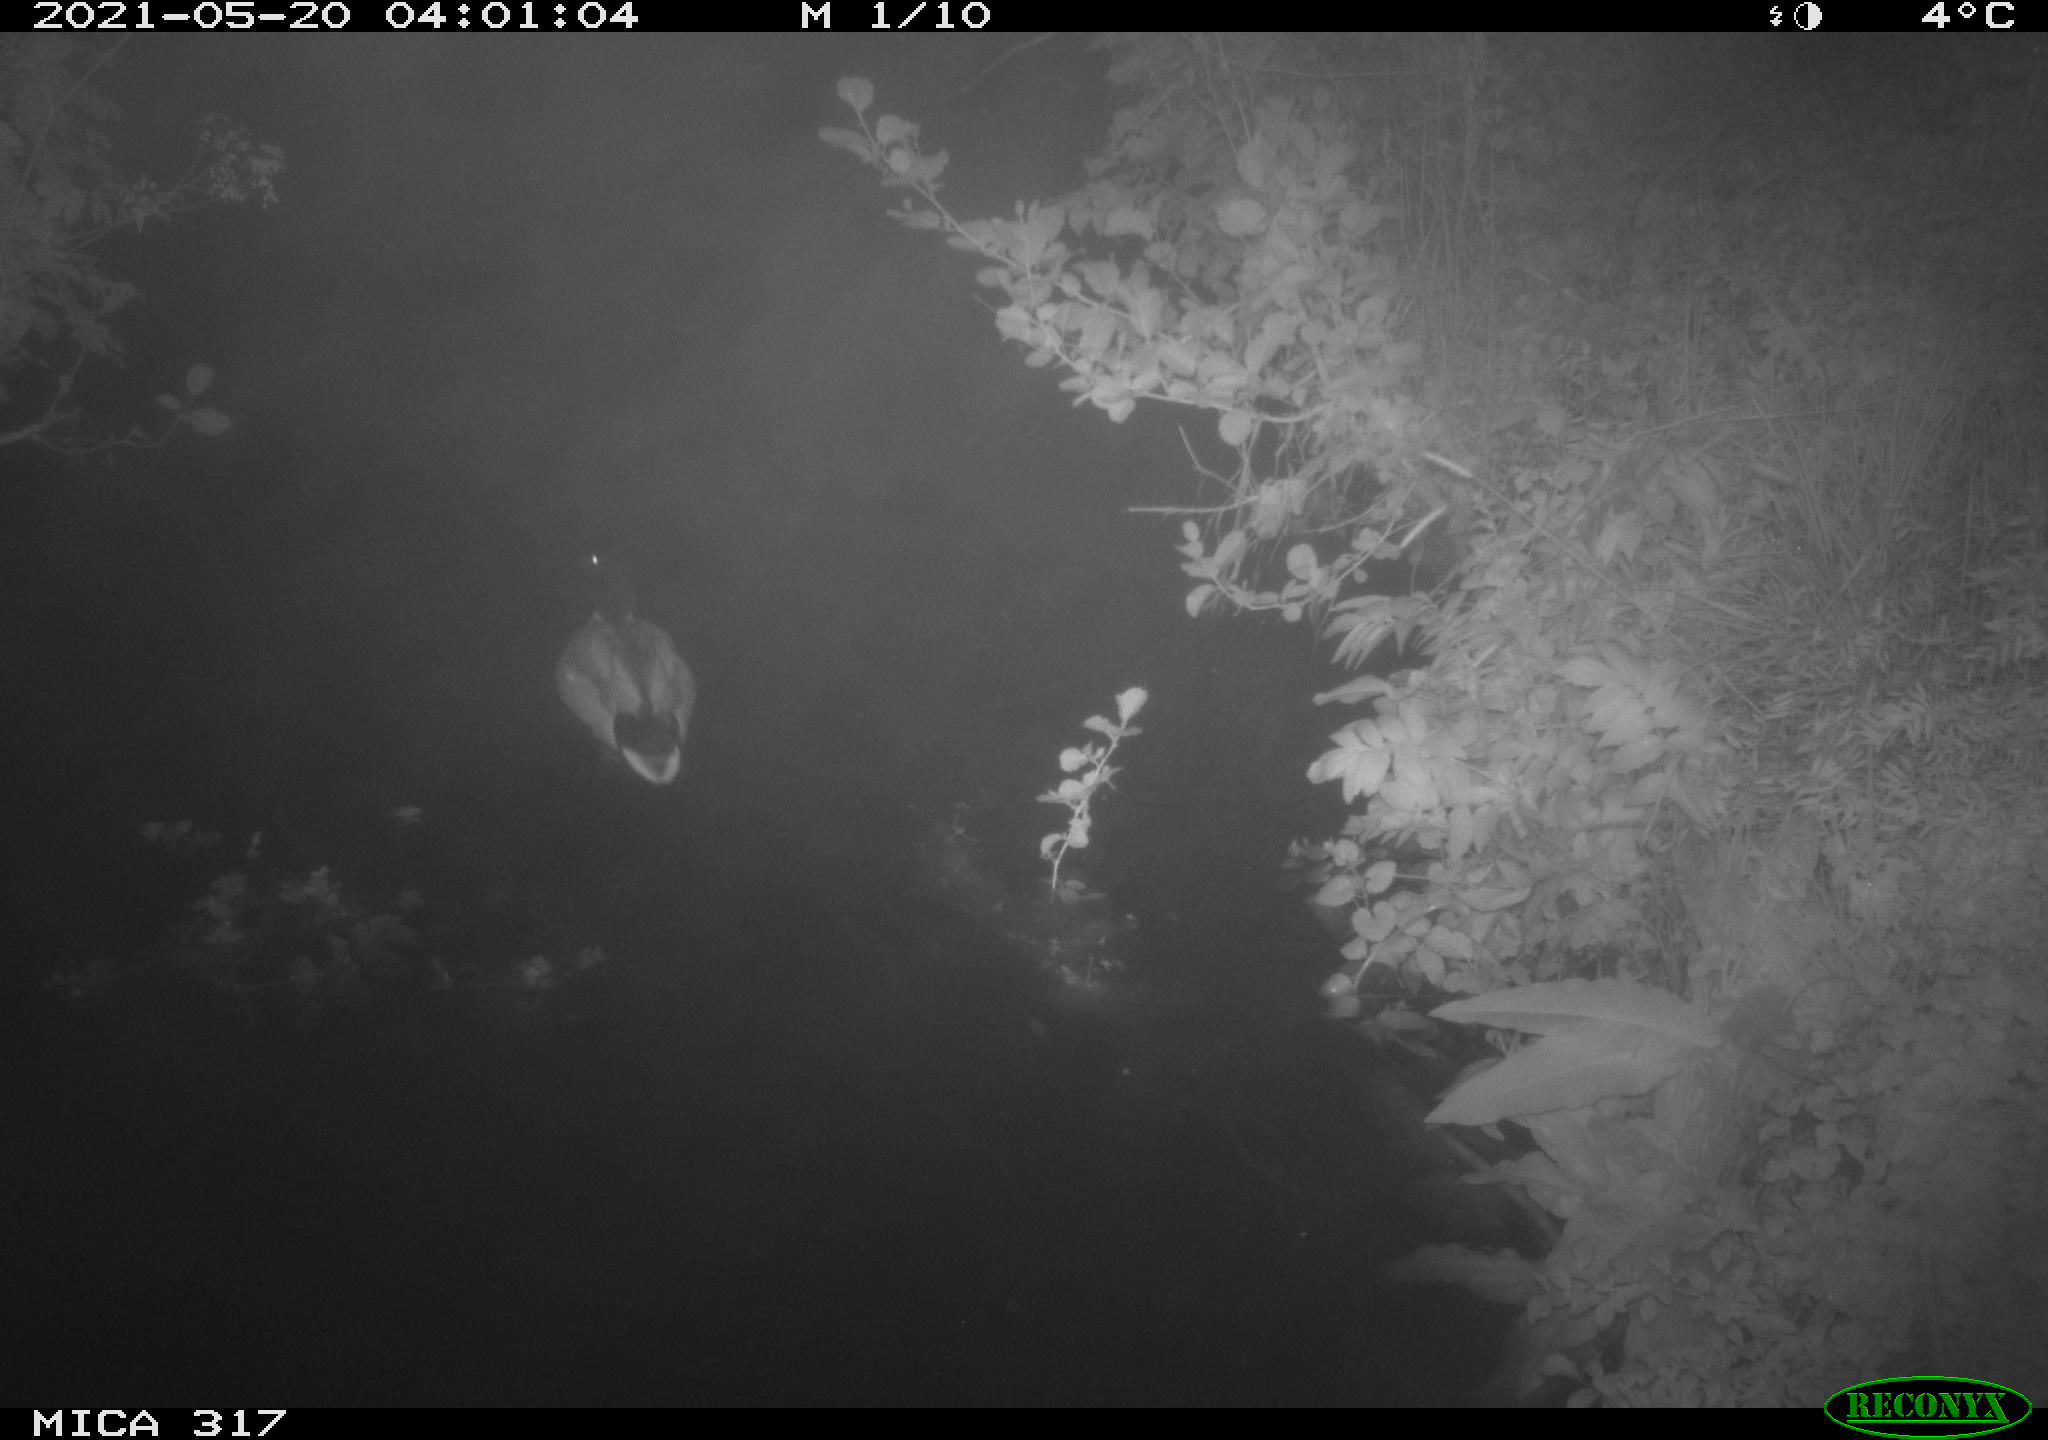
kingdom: Animalia
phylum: Chordata
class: Aves
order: Anseriformes
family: Anatidae
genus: Anas
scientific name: Anas
